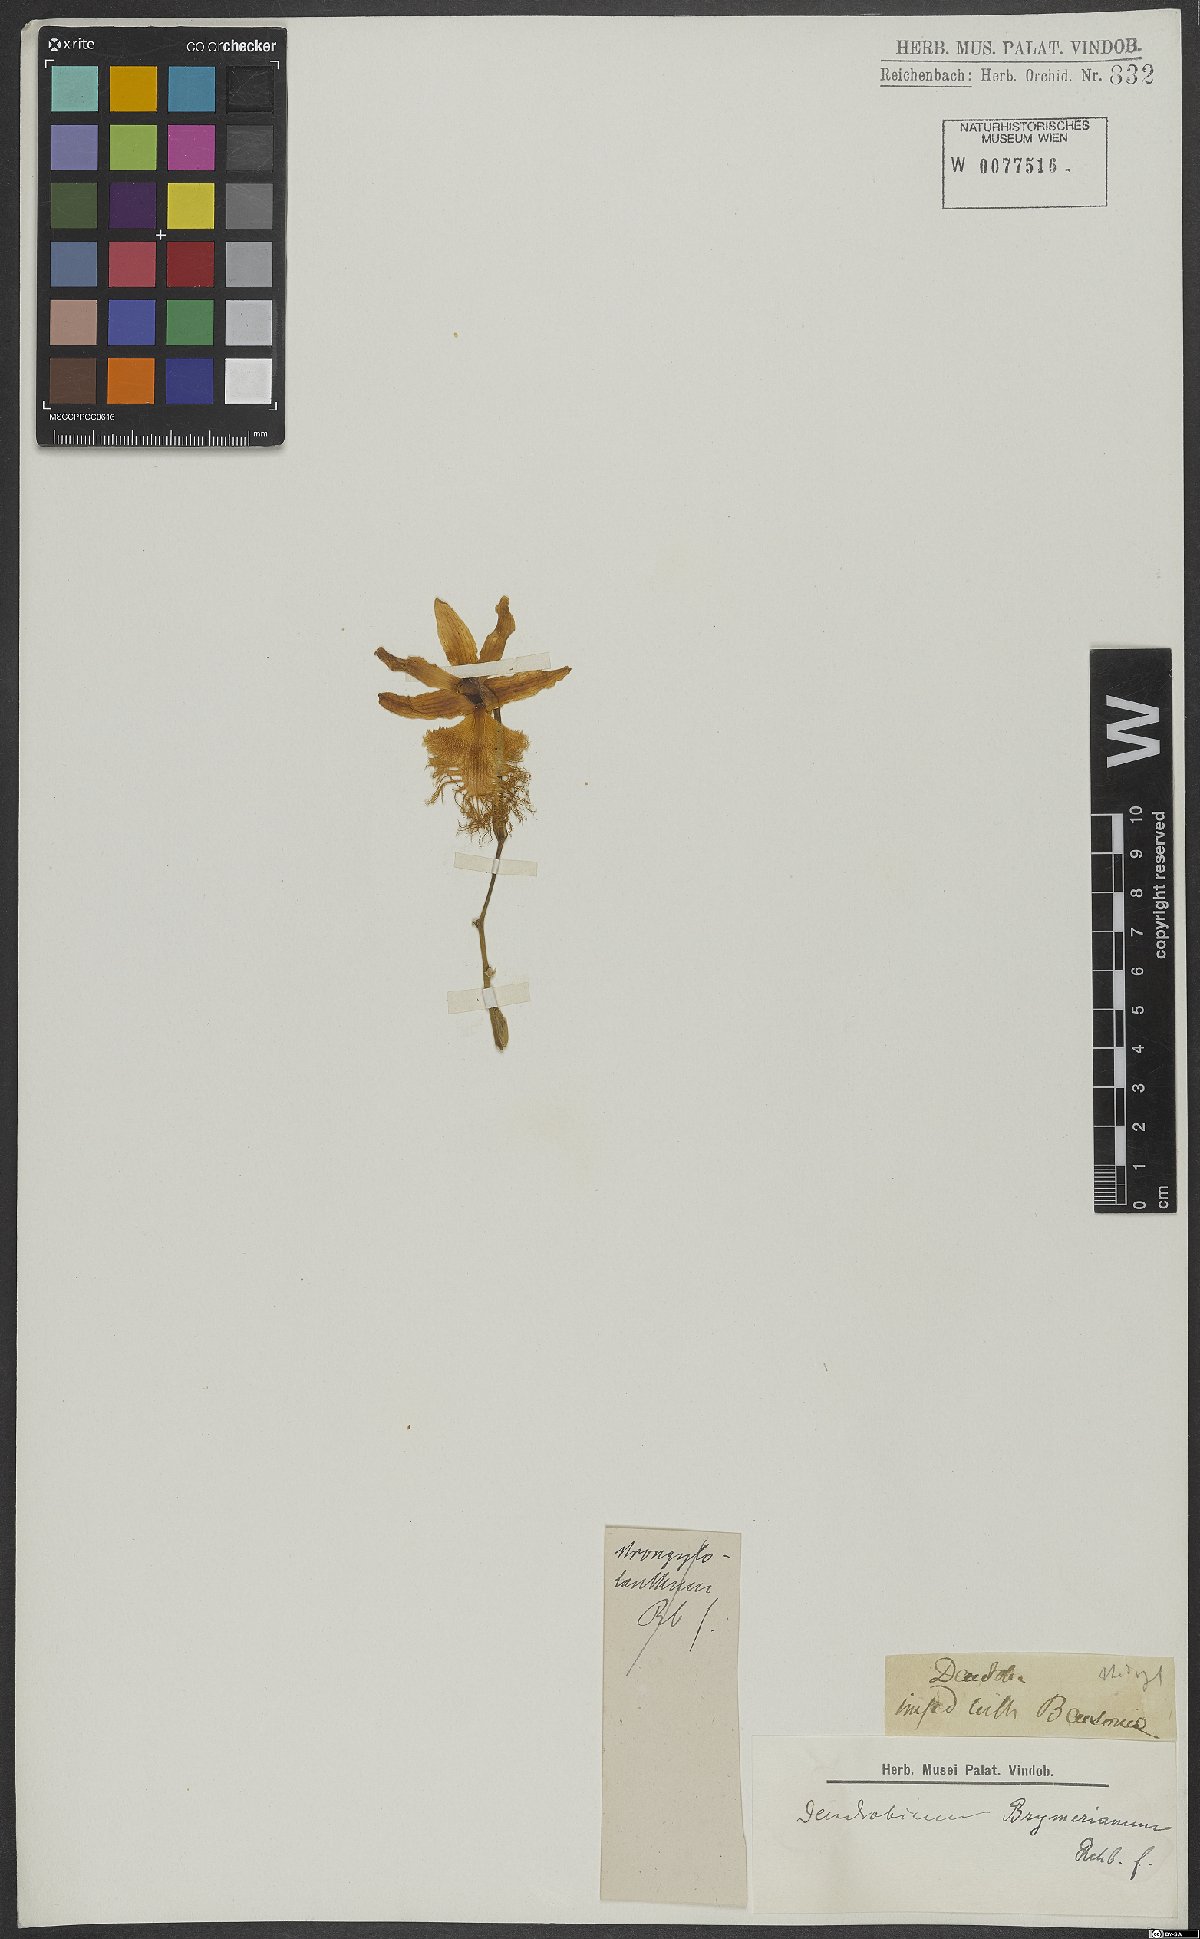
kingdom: Plantae
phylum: Tracheophyta
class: Liliopsida
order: Asparagales
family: Orchidaceae
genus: Dendrobium
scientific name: Dendrobium brymerianum
